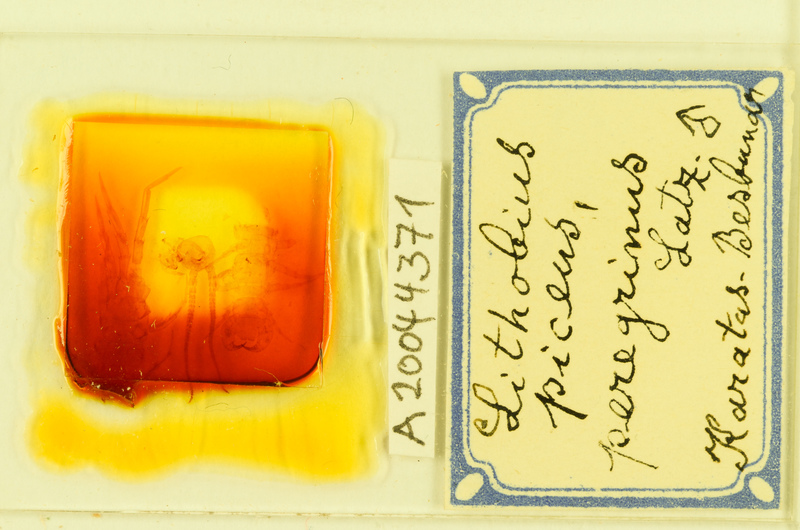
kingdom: Animalia
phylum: Arthropoda
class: Chilopoda
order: Lithobiomorpha
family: Lithobiidae
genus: Lithobius
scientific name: Lithobius piceus
